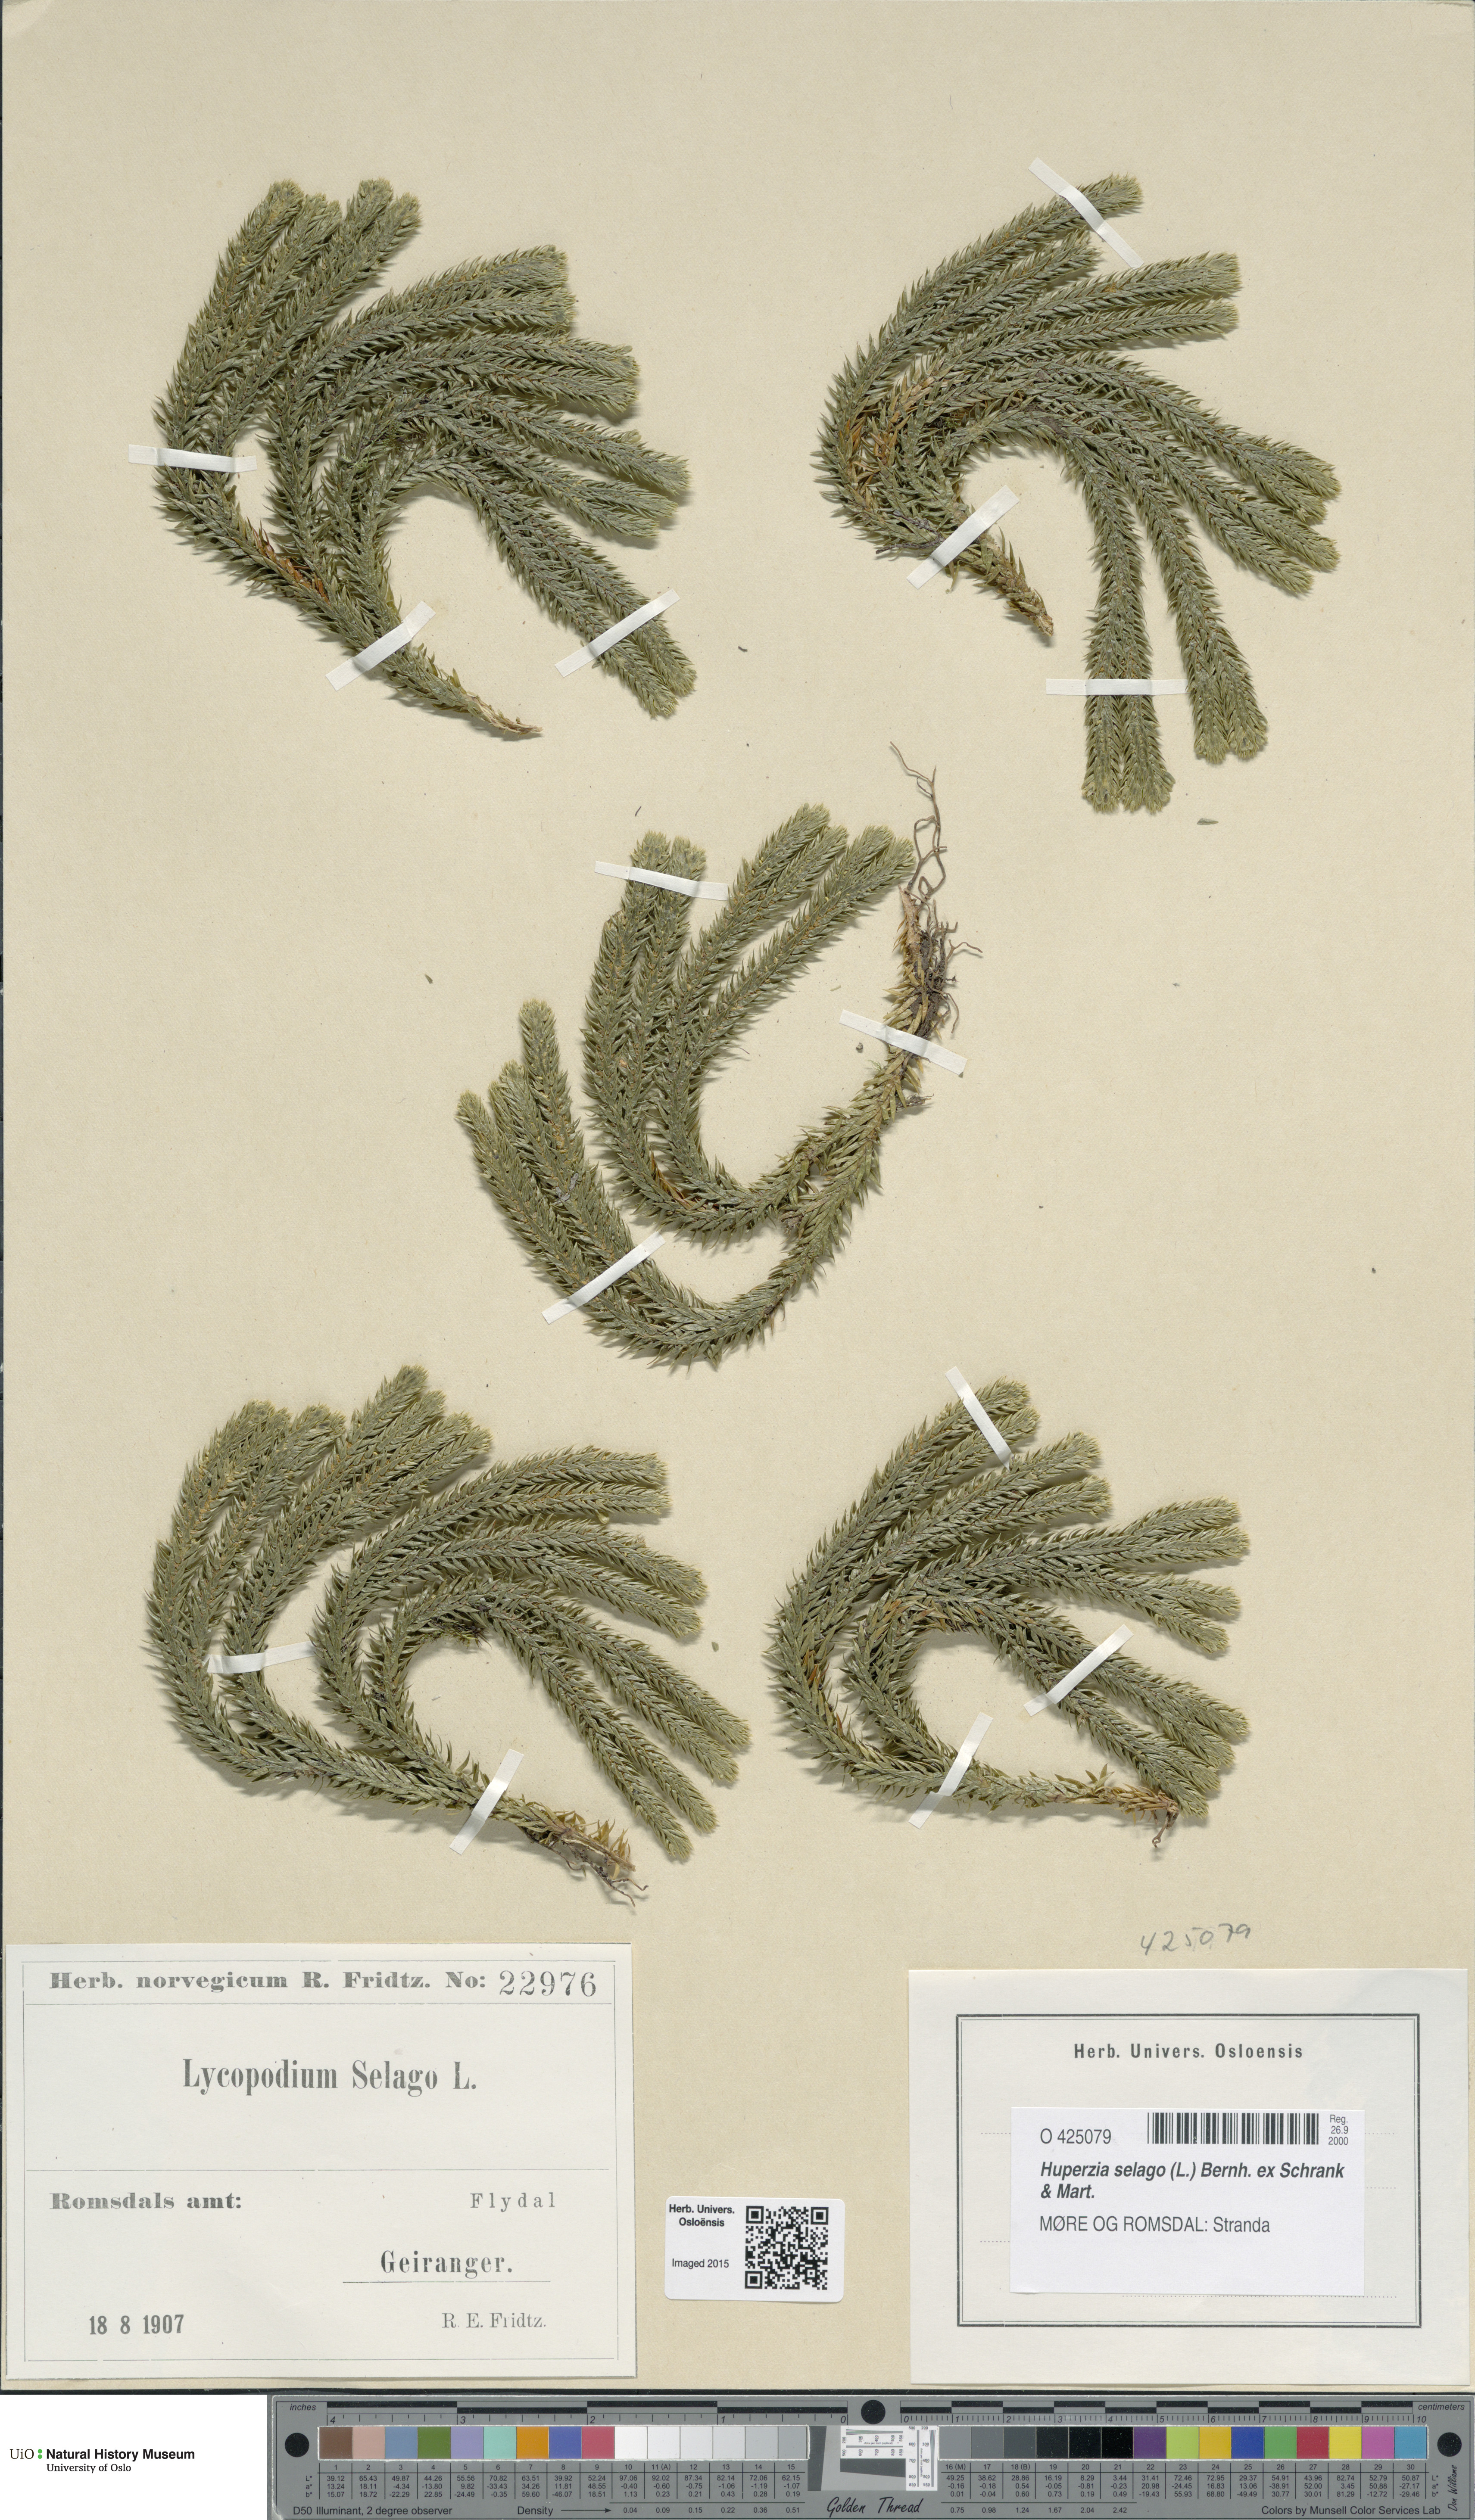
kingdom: Plantae
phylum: Tracheophyta
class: Lycopodiopsida
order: Lycopodiales
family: Lycopodiaceae
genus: Huperzia
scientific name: Huperzia selago
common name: Northern firmoss
